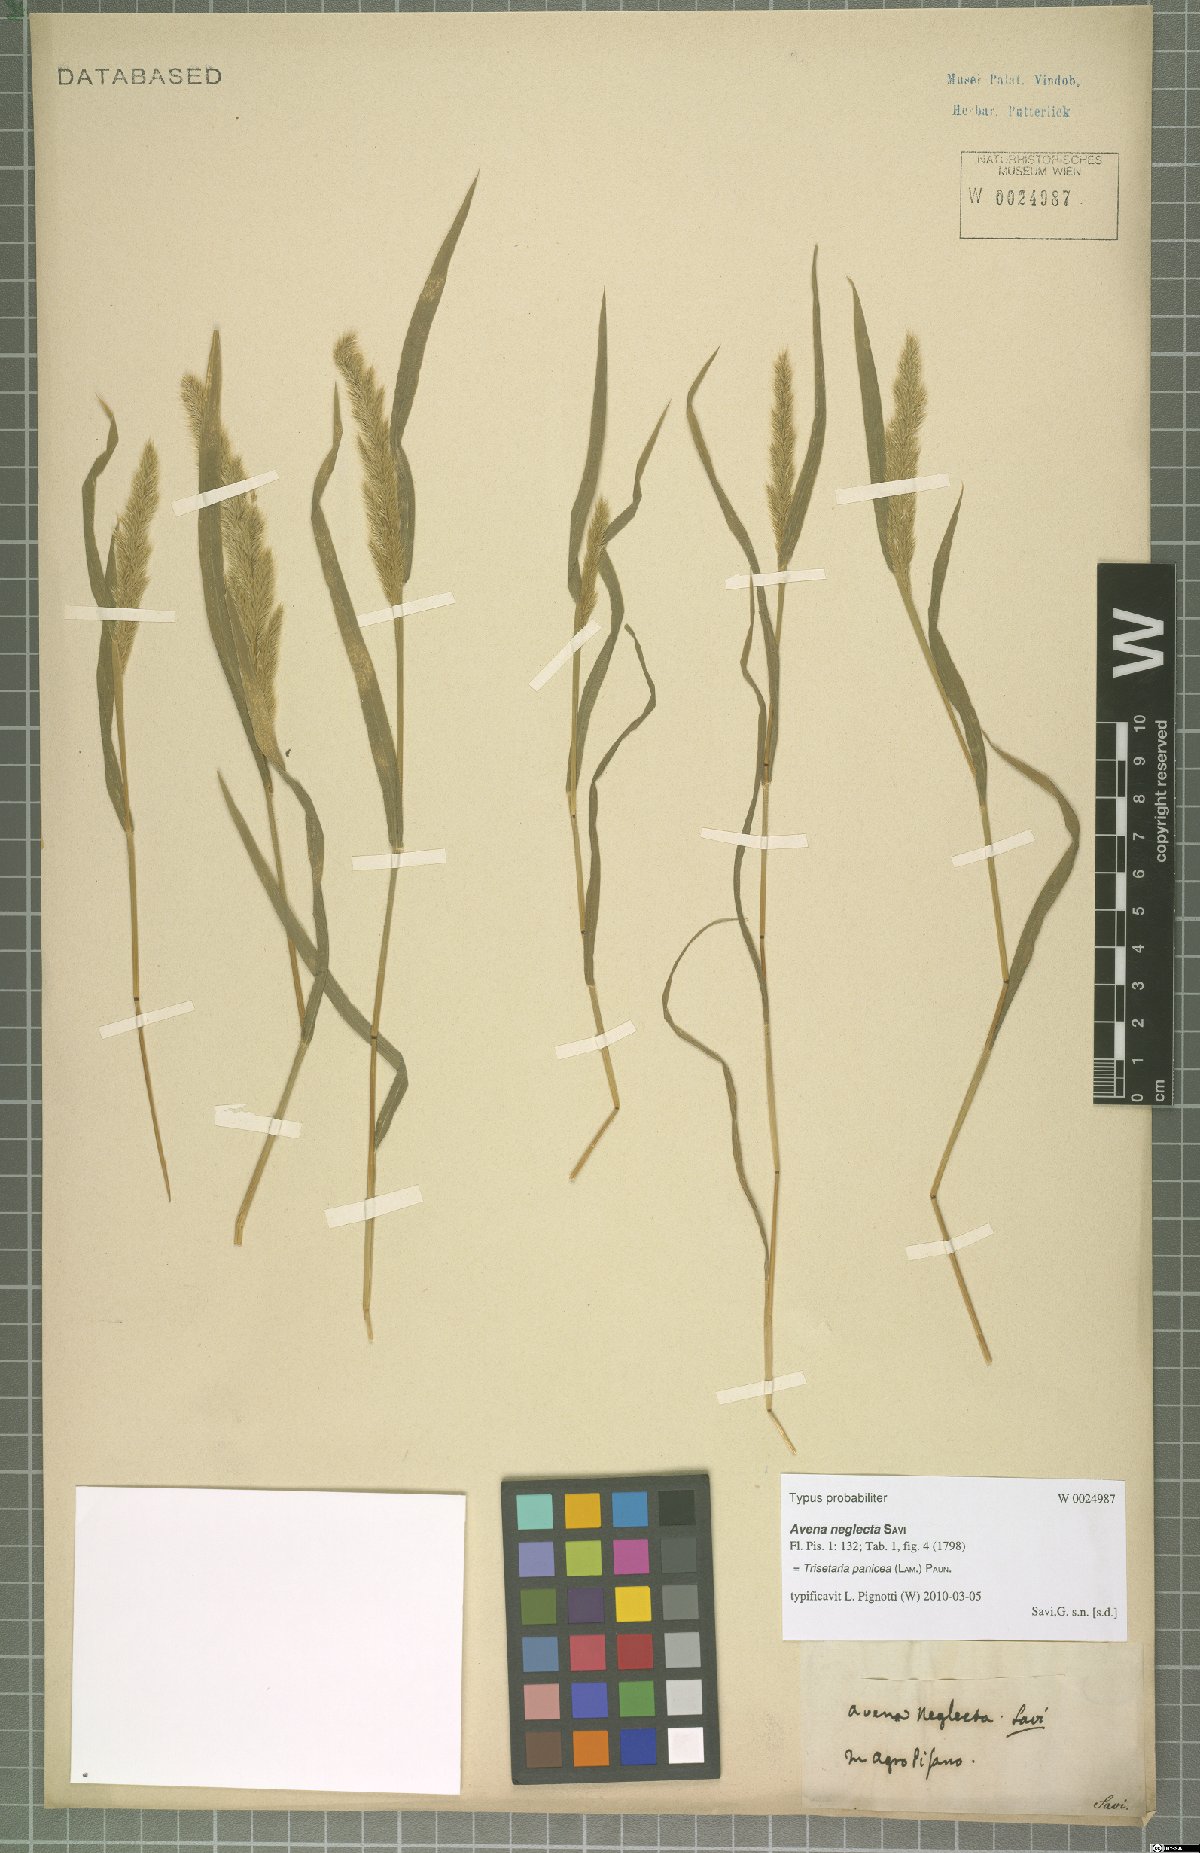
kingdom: Plantae
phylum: Tracheophyta
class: Liliopsida
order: Poales
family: Poaceae
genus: Trisetaria
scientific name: Trisetaria panicea
